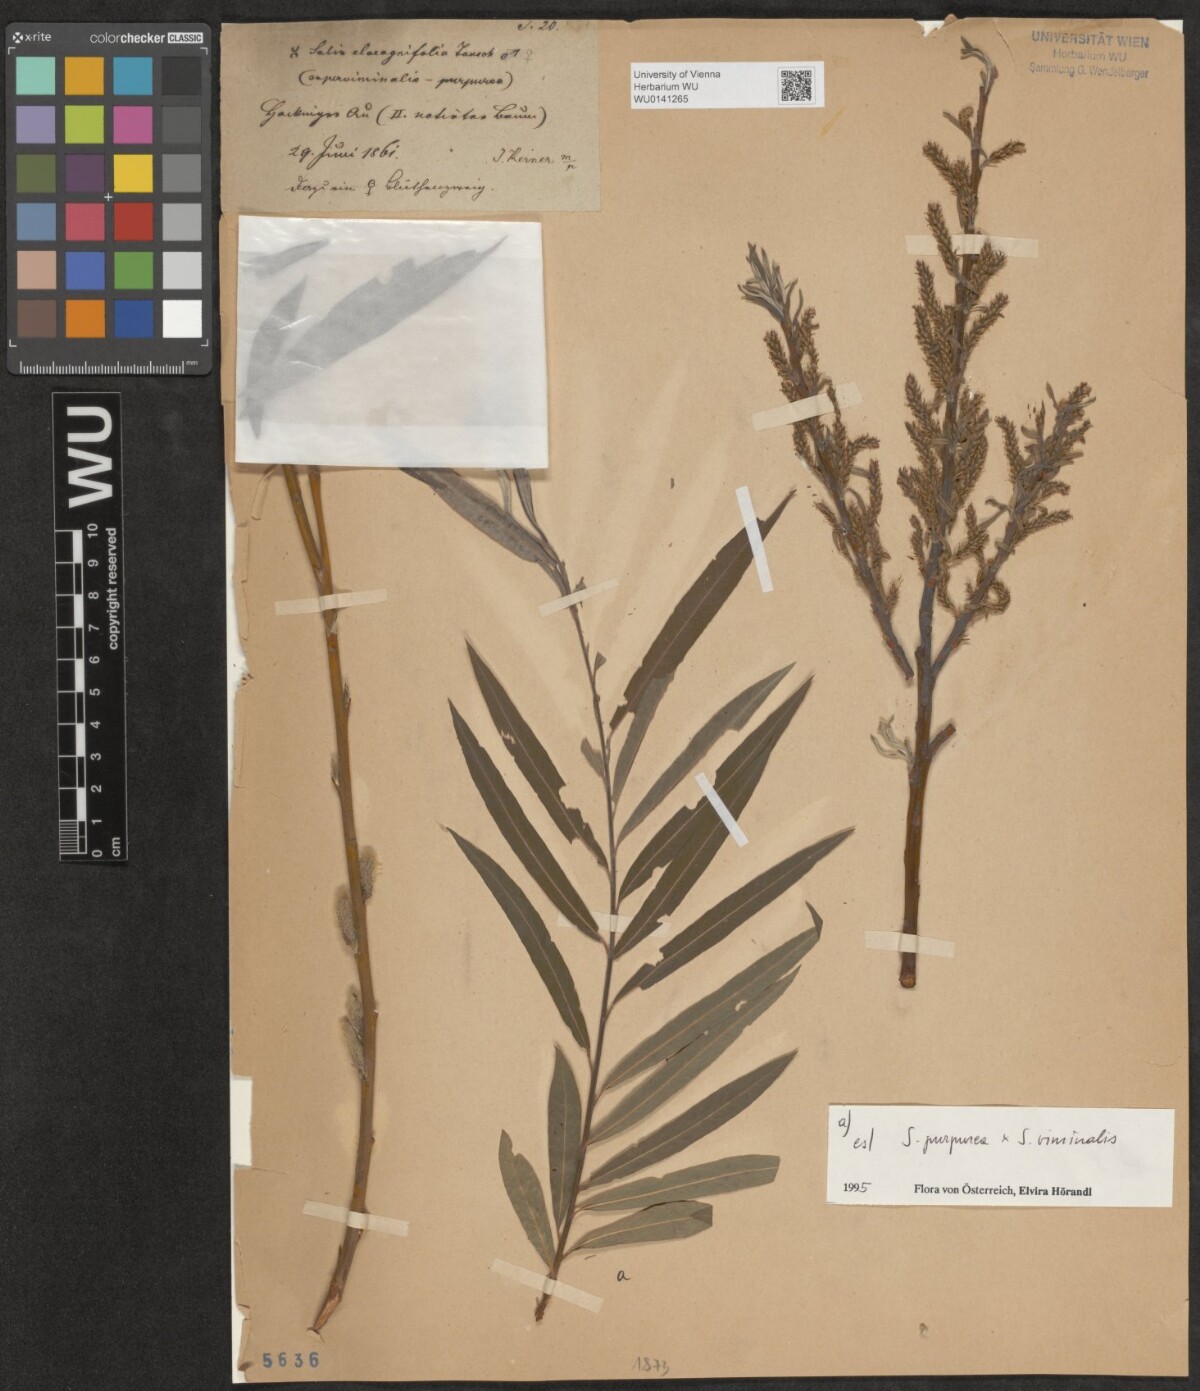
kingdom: Plantae
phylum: Tracheophyta
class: Magnoliopsida
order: Malpighiales
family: Salicaceae
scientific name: Salicaceae
